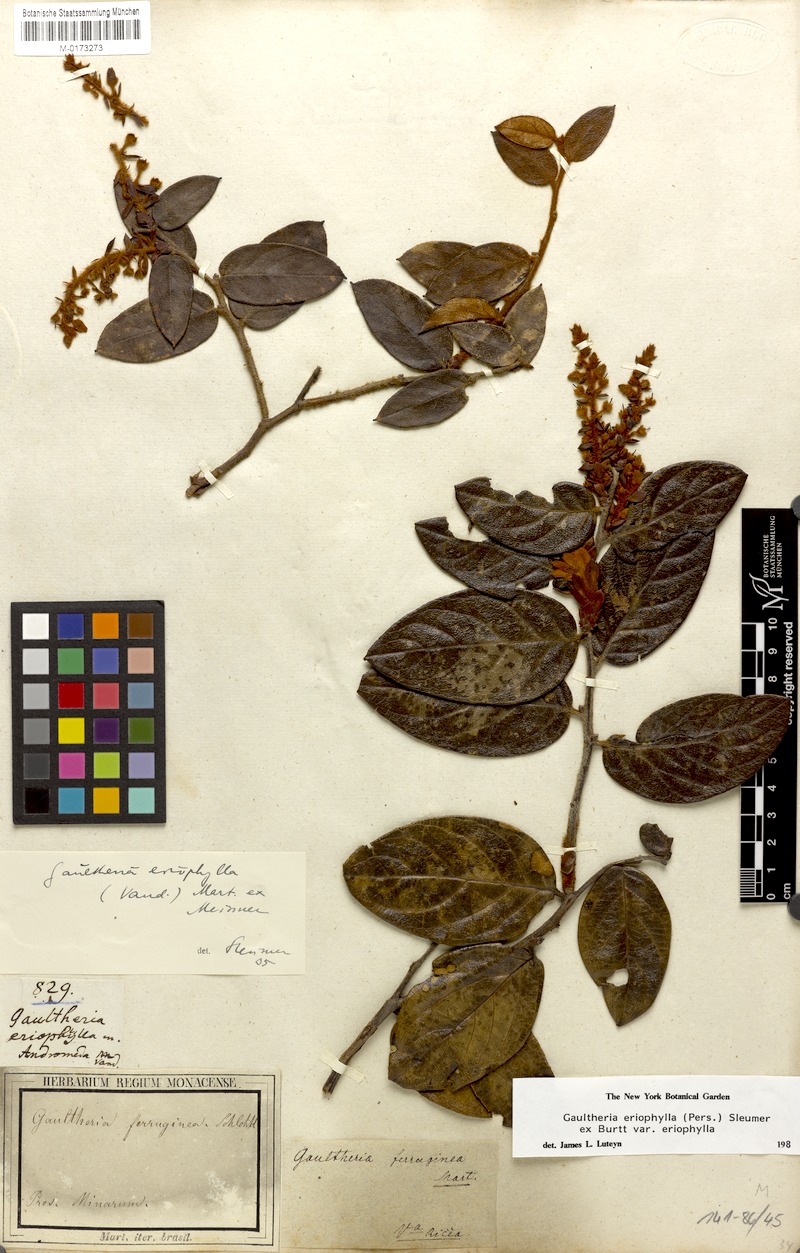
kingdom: Plantae
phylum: Tracheophyta
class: Magnoliopsida
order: Ericales
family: Ericaceae
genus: Gaultheria
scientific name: Gaultheria eriophylla
